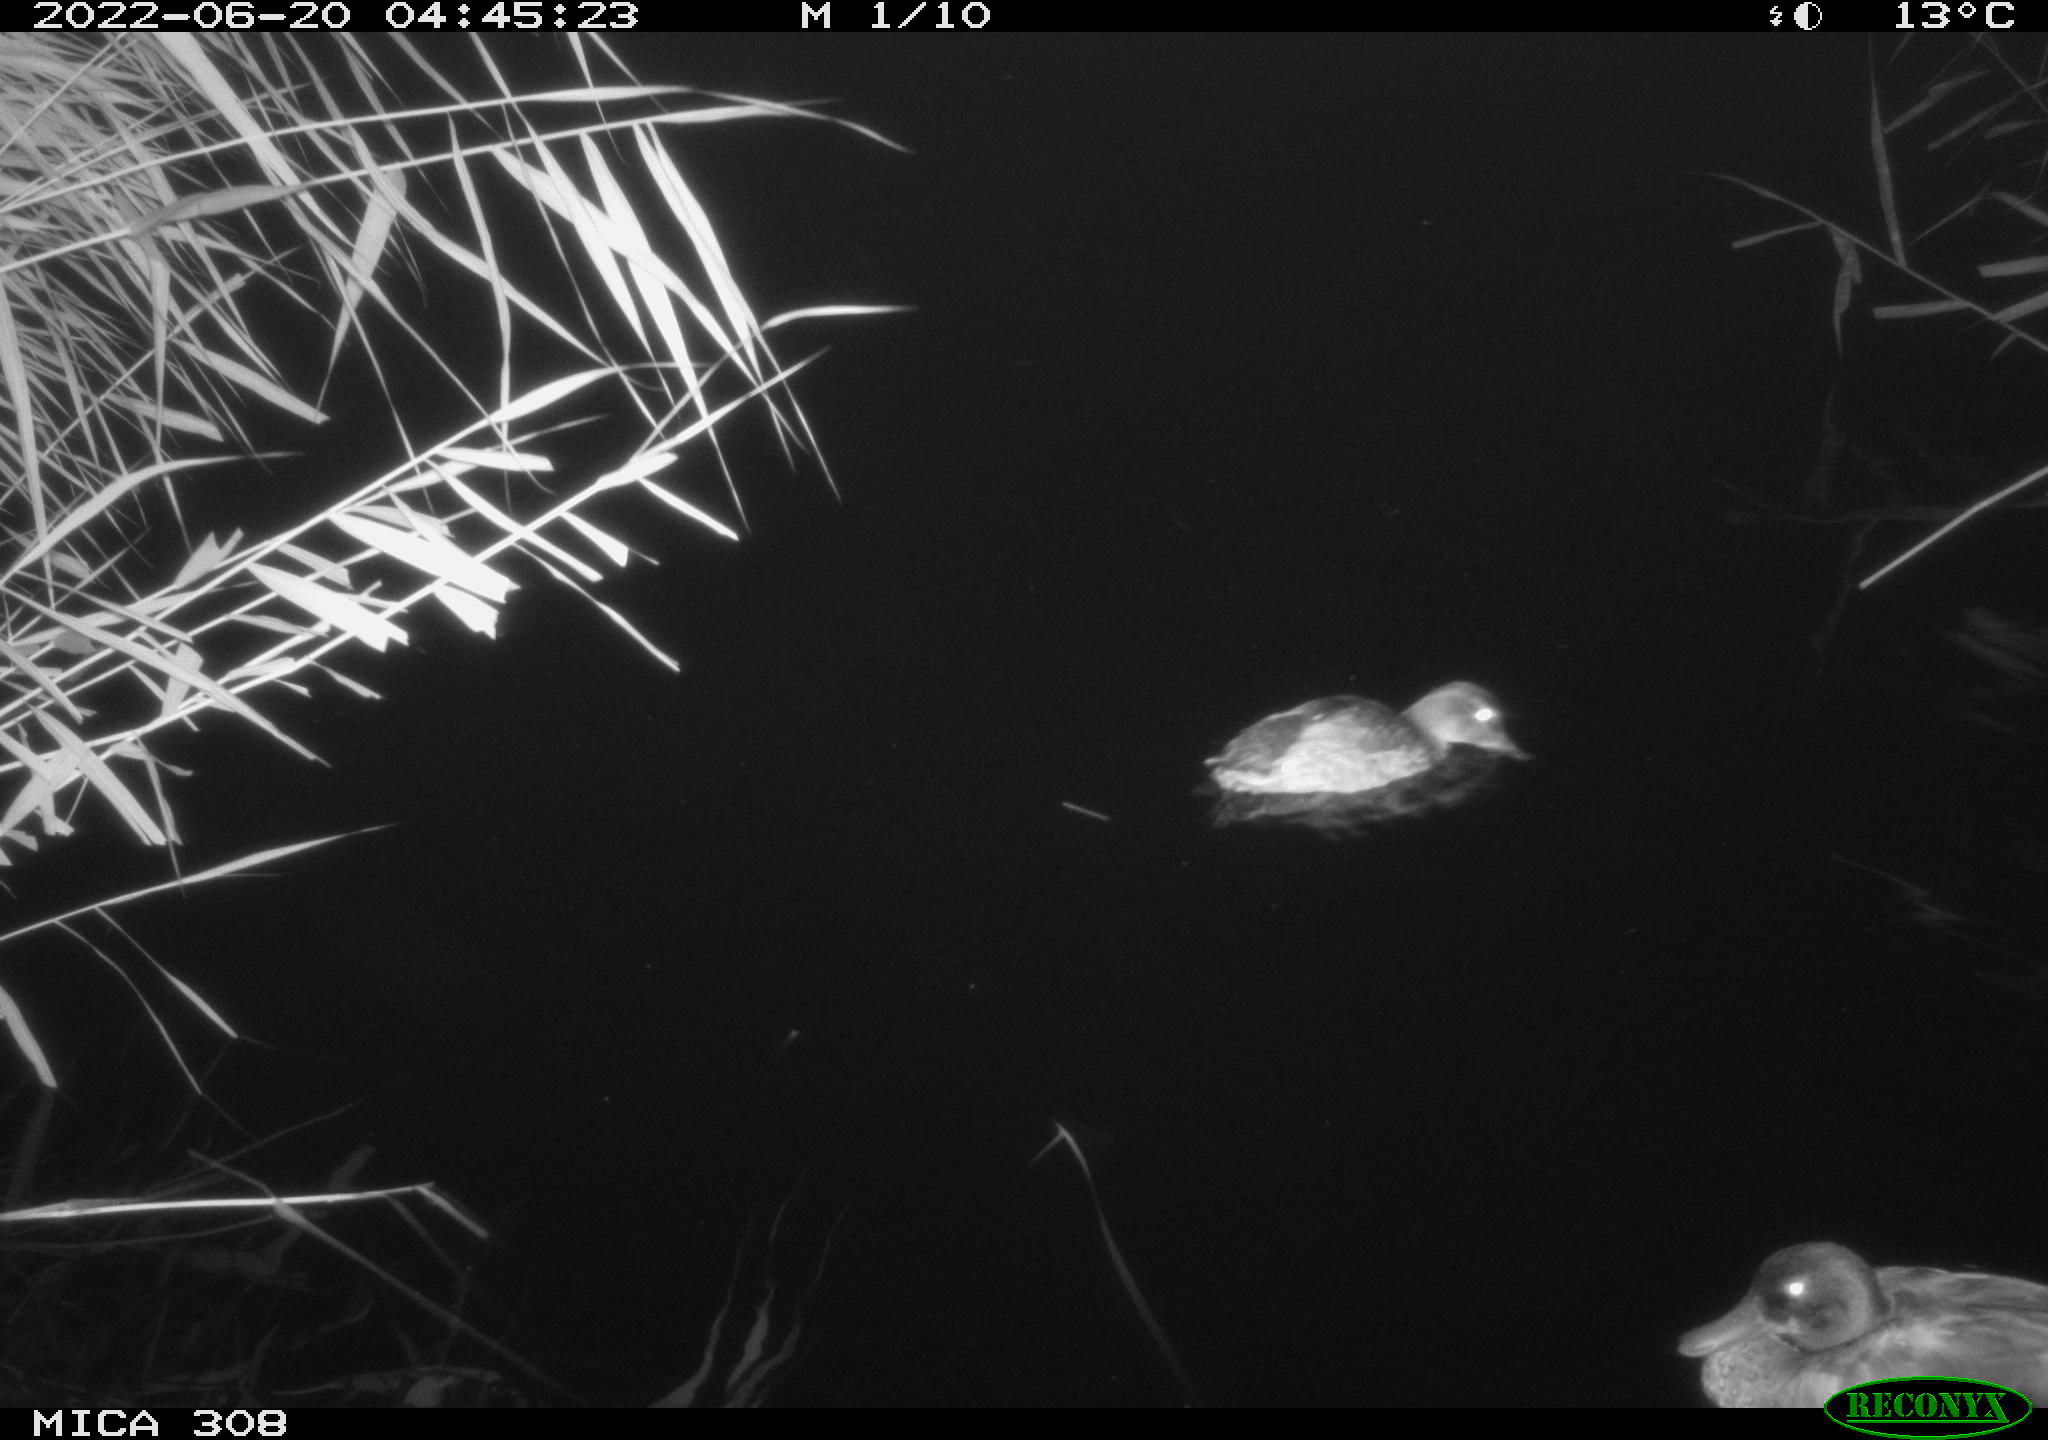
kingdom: Animalia
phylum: Chordata
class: Aves
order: Anseriformes
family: Anatidae
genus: Mareca
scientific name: Mareca strepera
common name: Gadwall
